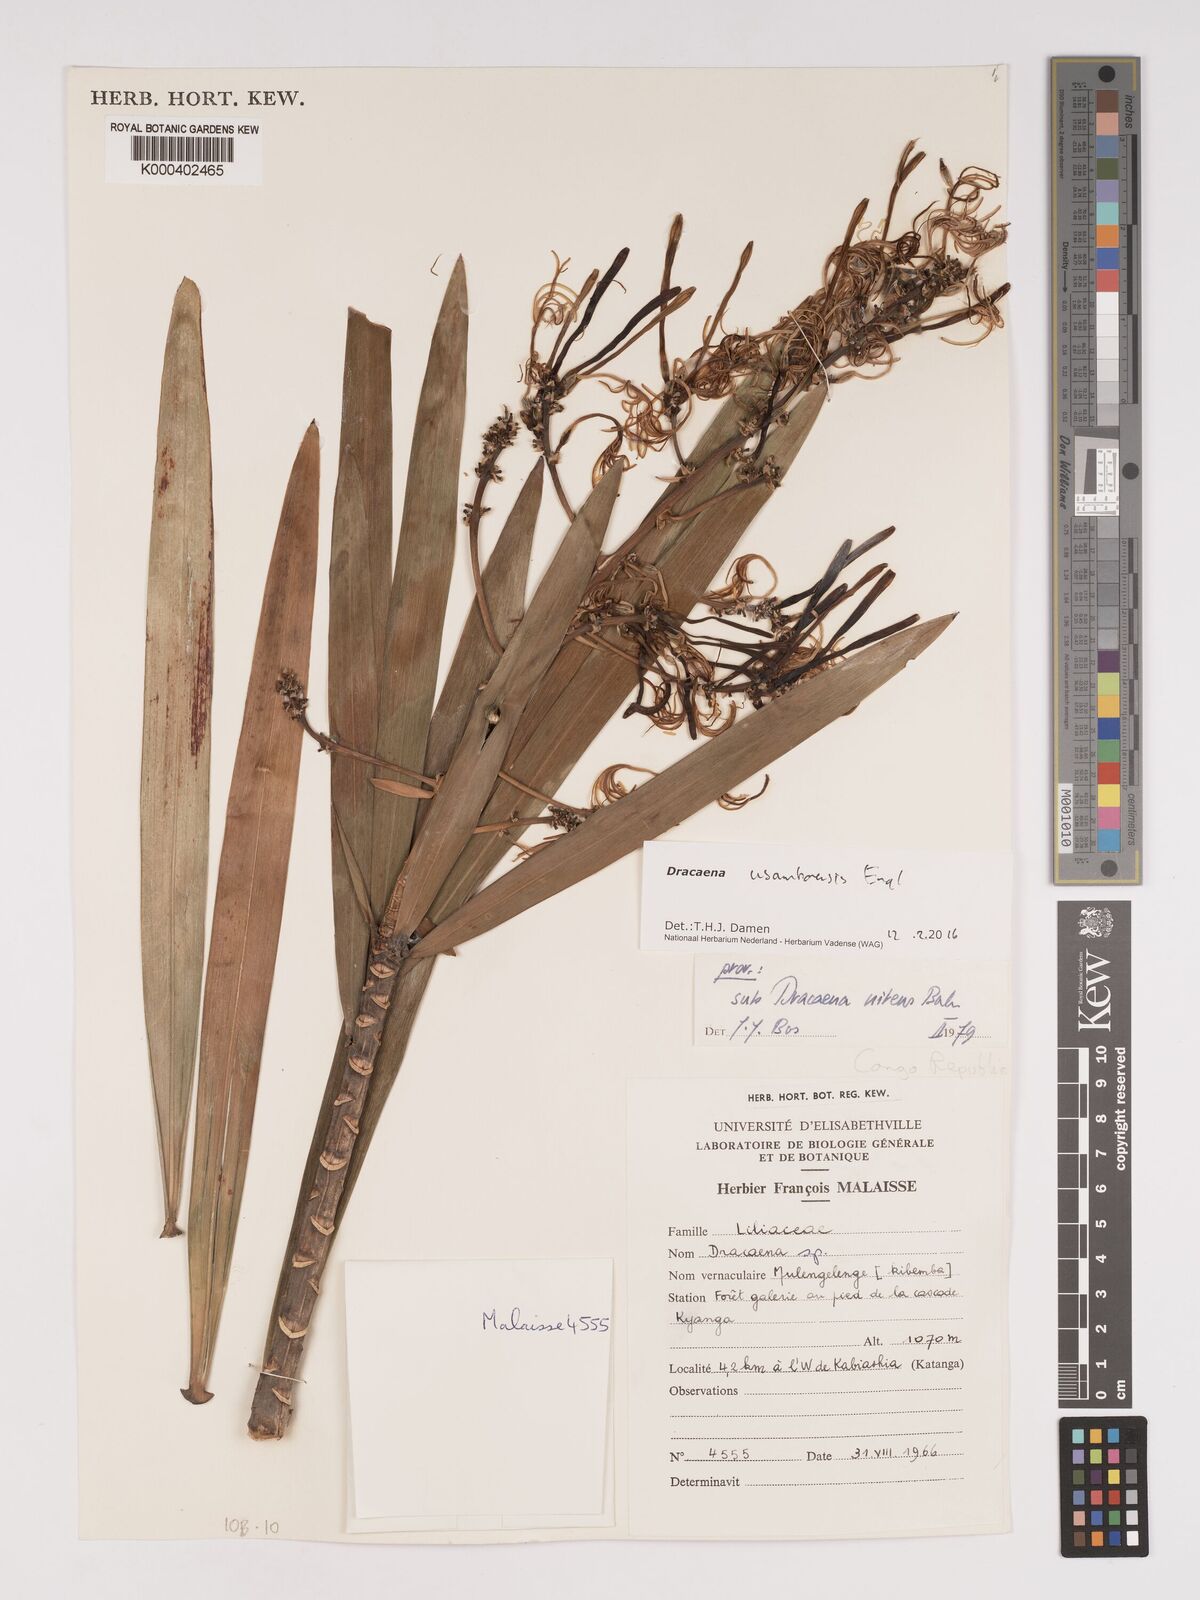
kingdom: Plantae
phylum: Tracheophyta
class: Liliopsida
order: Asparagales
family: Asparagaceae
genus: Dracaena
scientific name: Dracaena usambarensis
